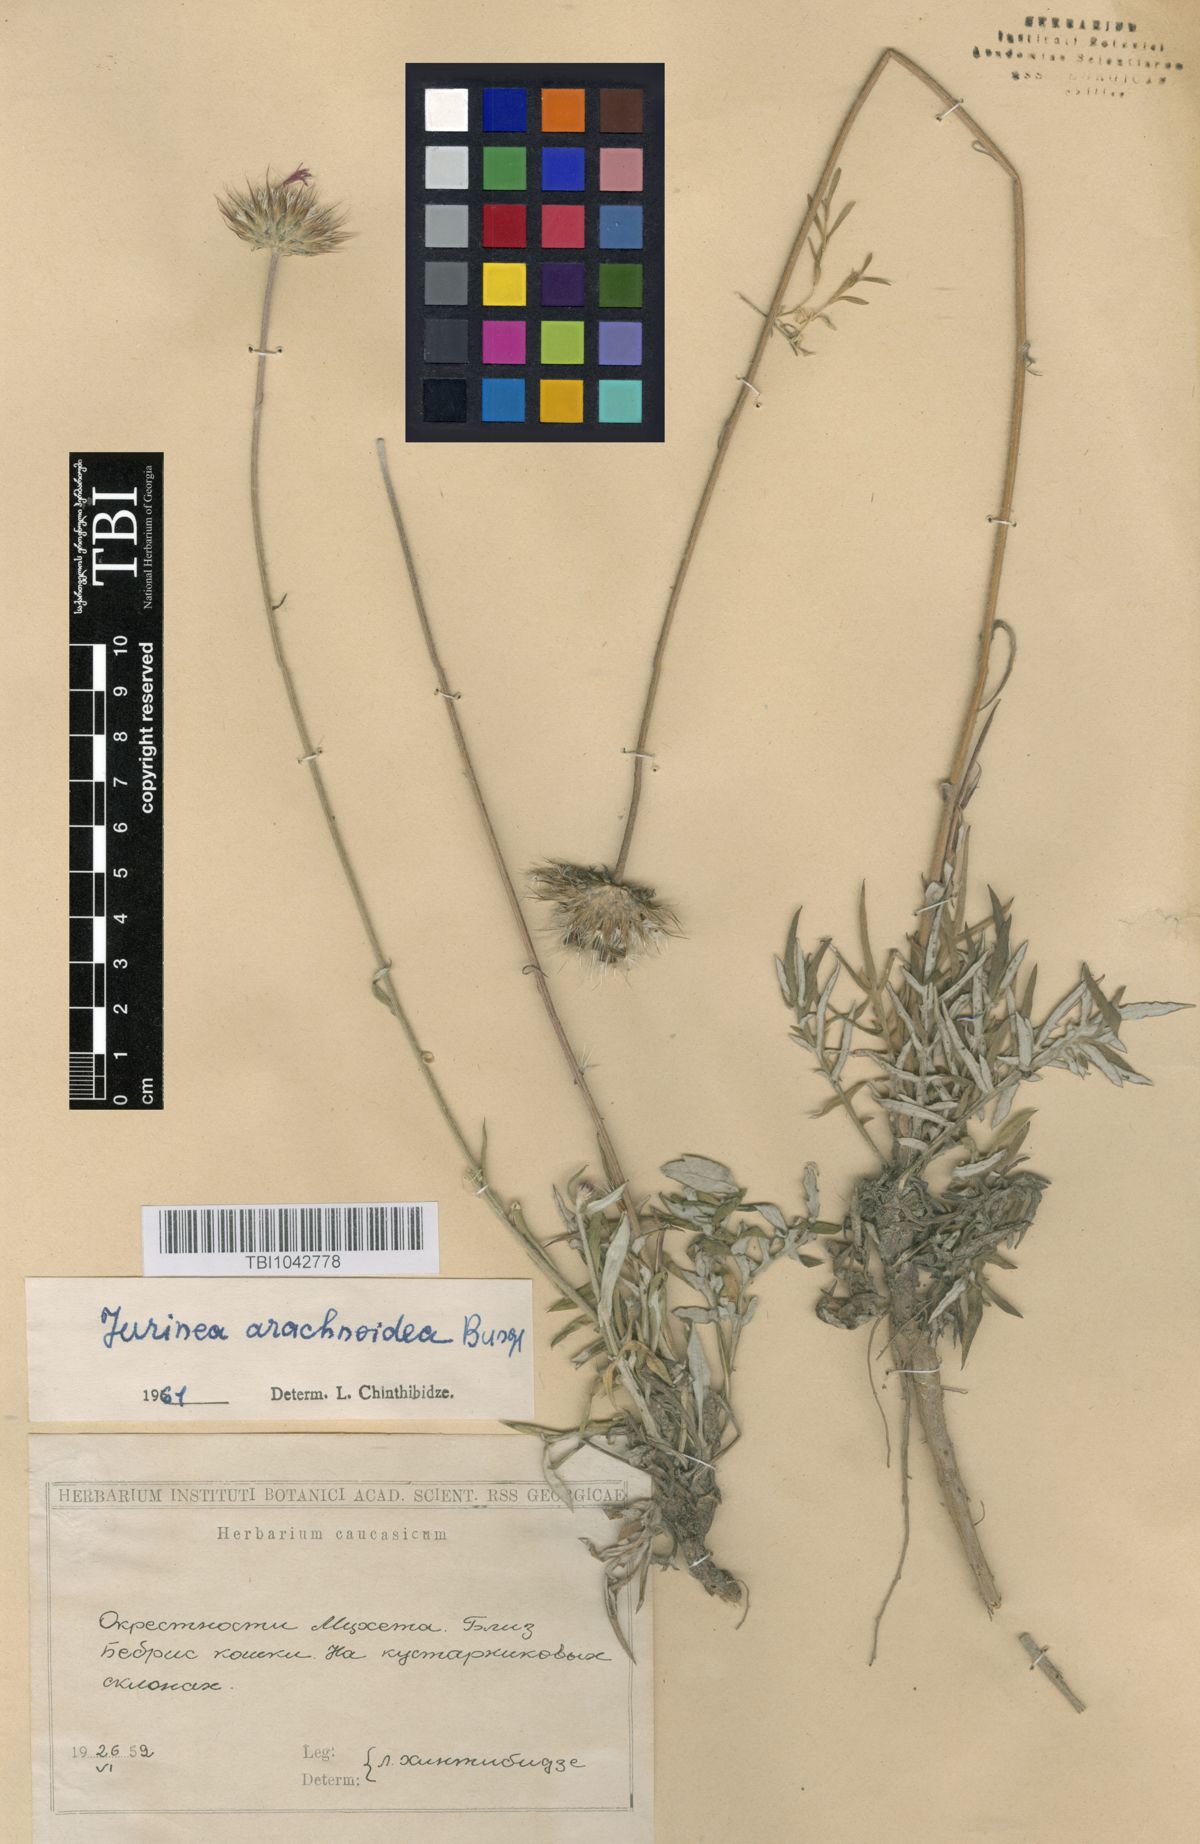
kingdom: Plantae
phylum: Tracheophyta
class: Magnoliopsida
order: Asterales
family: Asteraceae
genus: Jurinea
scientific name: Jurinea blanda
